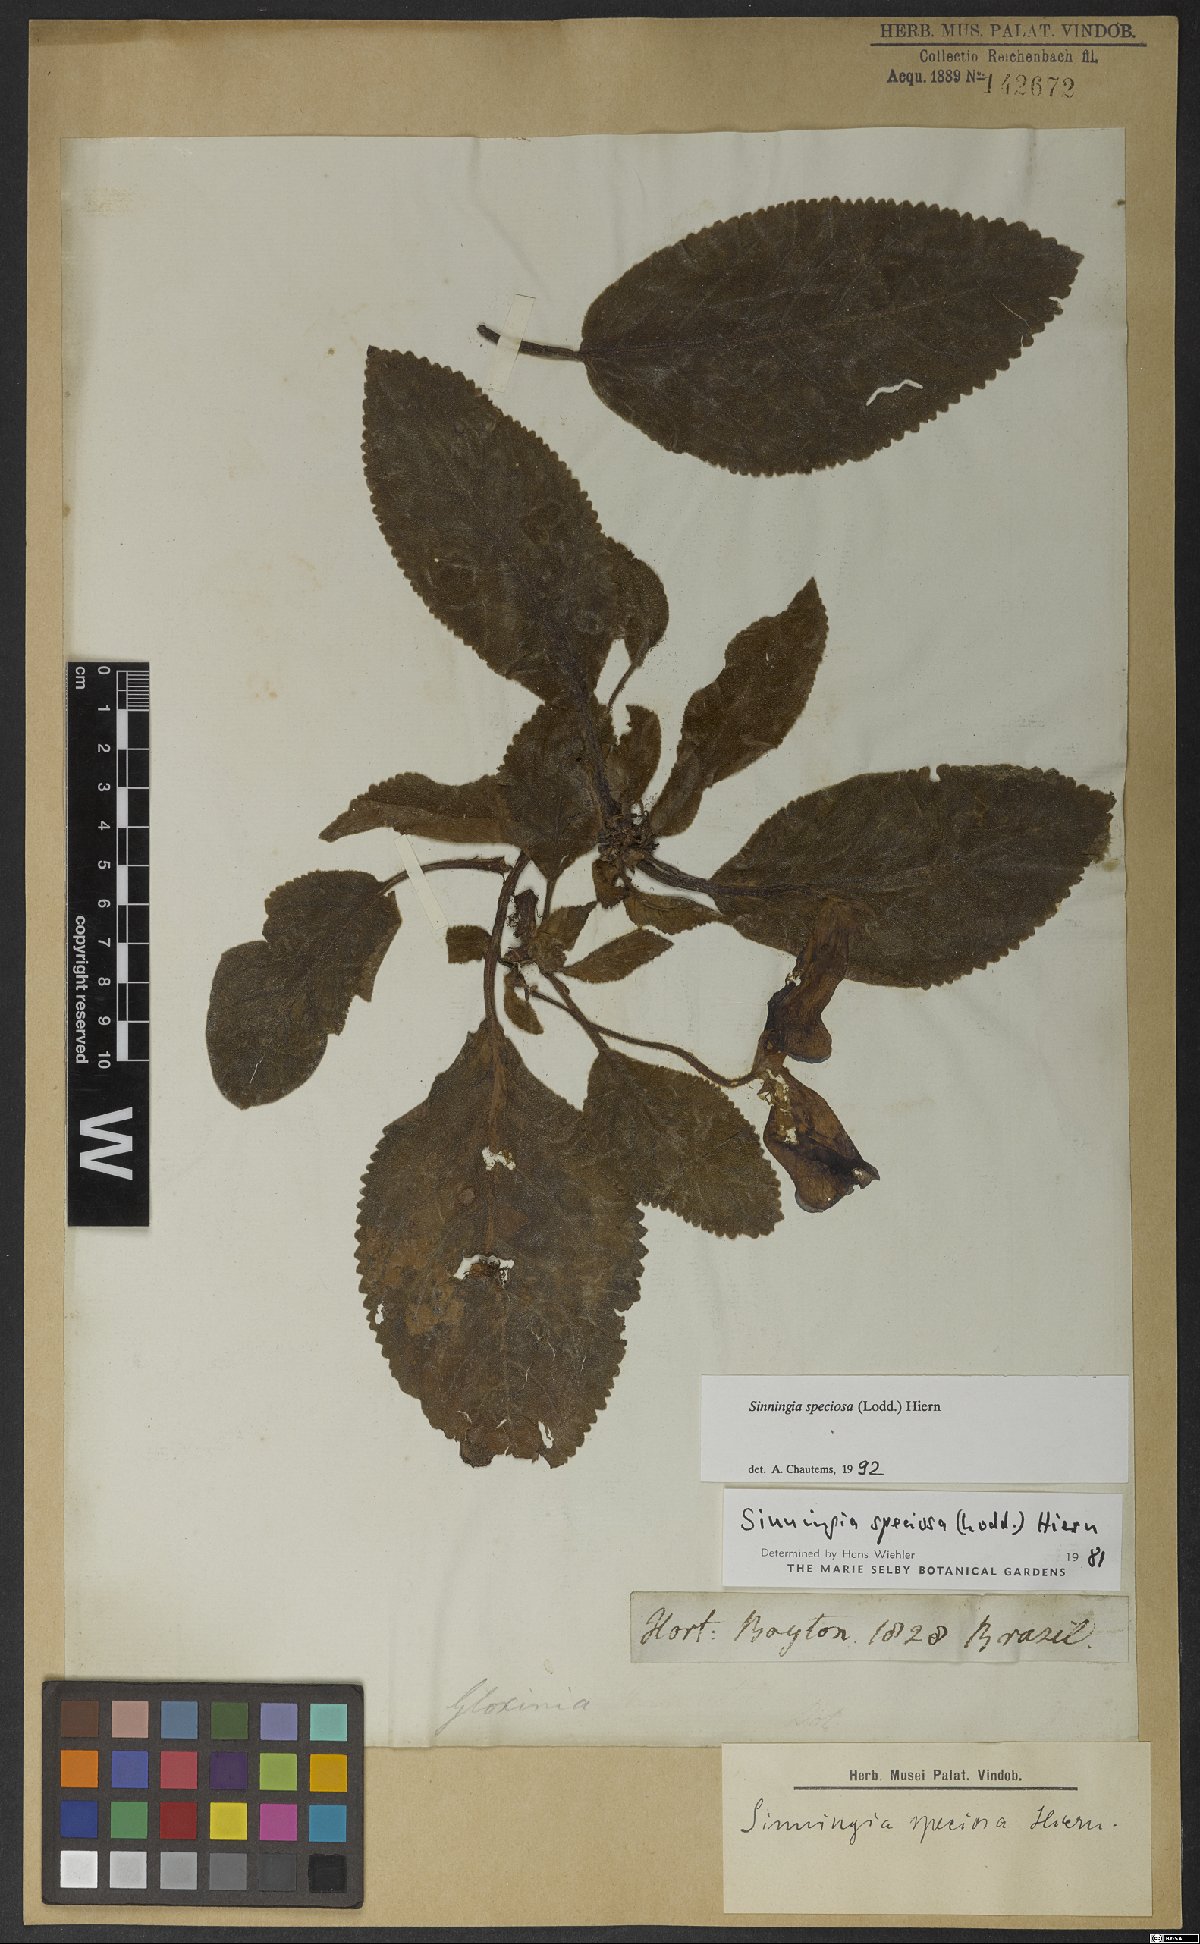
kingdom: Plantae
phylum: Tracheophyta
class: Magnoliopsida
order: Lamiales
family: Gesneriaceae
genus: Sinningia
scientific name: Sinningia speciosa
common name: Brazilian gloxinia
